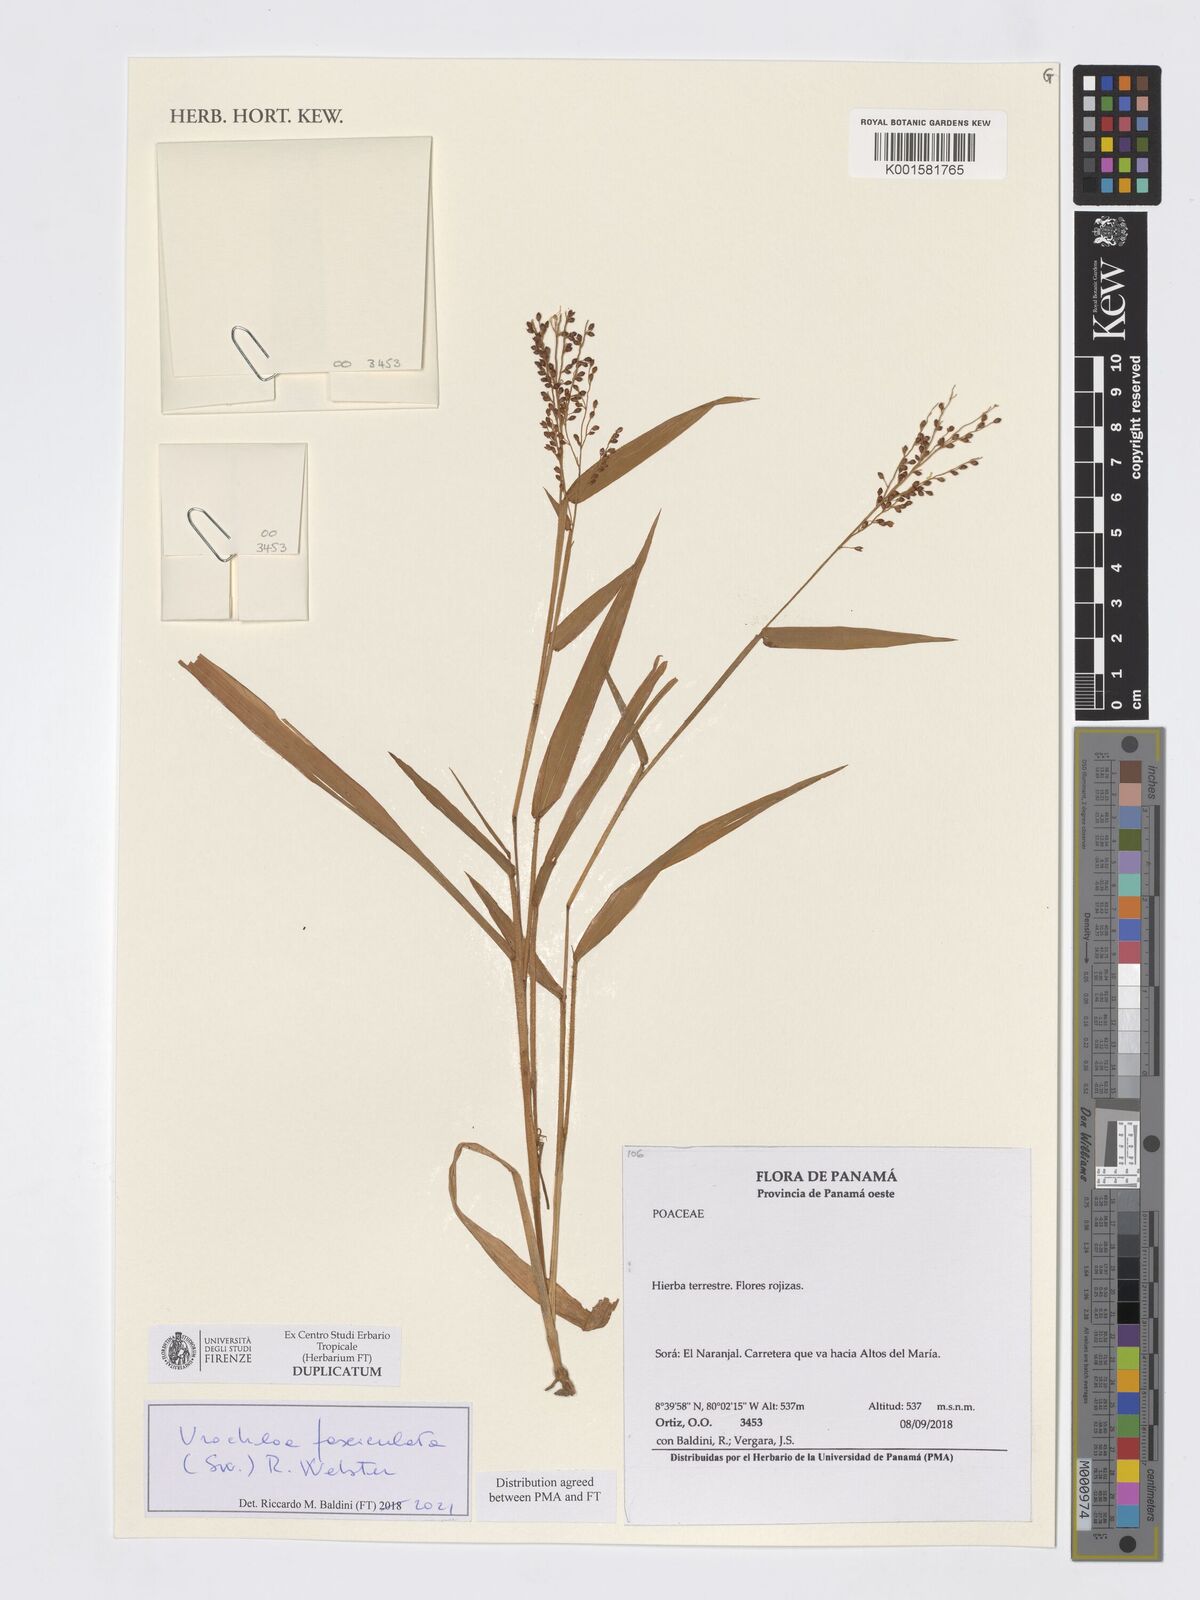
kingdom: Plantae
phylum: Tracheophyta
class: Liliopsida
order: Poales
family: Poaceae
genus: Alloteropsis
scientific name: Alloteropsis cimicina
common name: Summergrass
